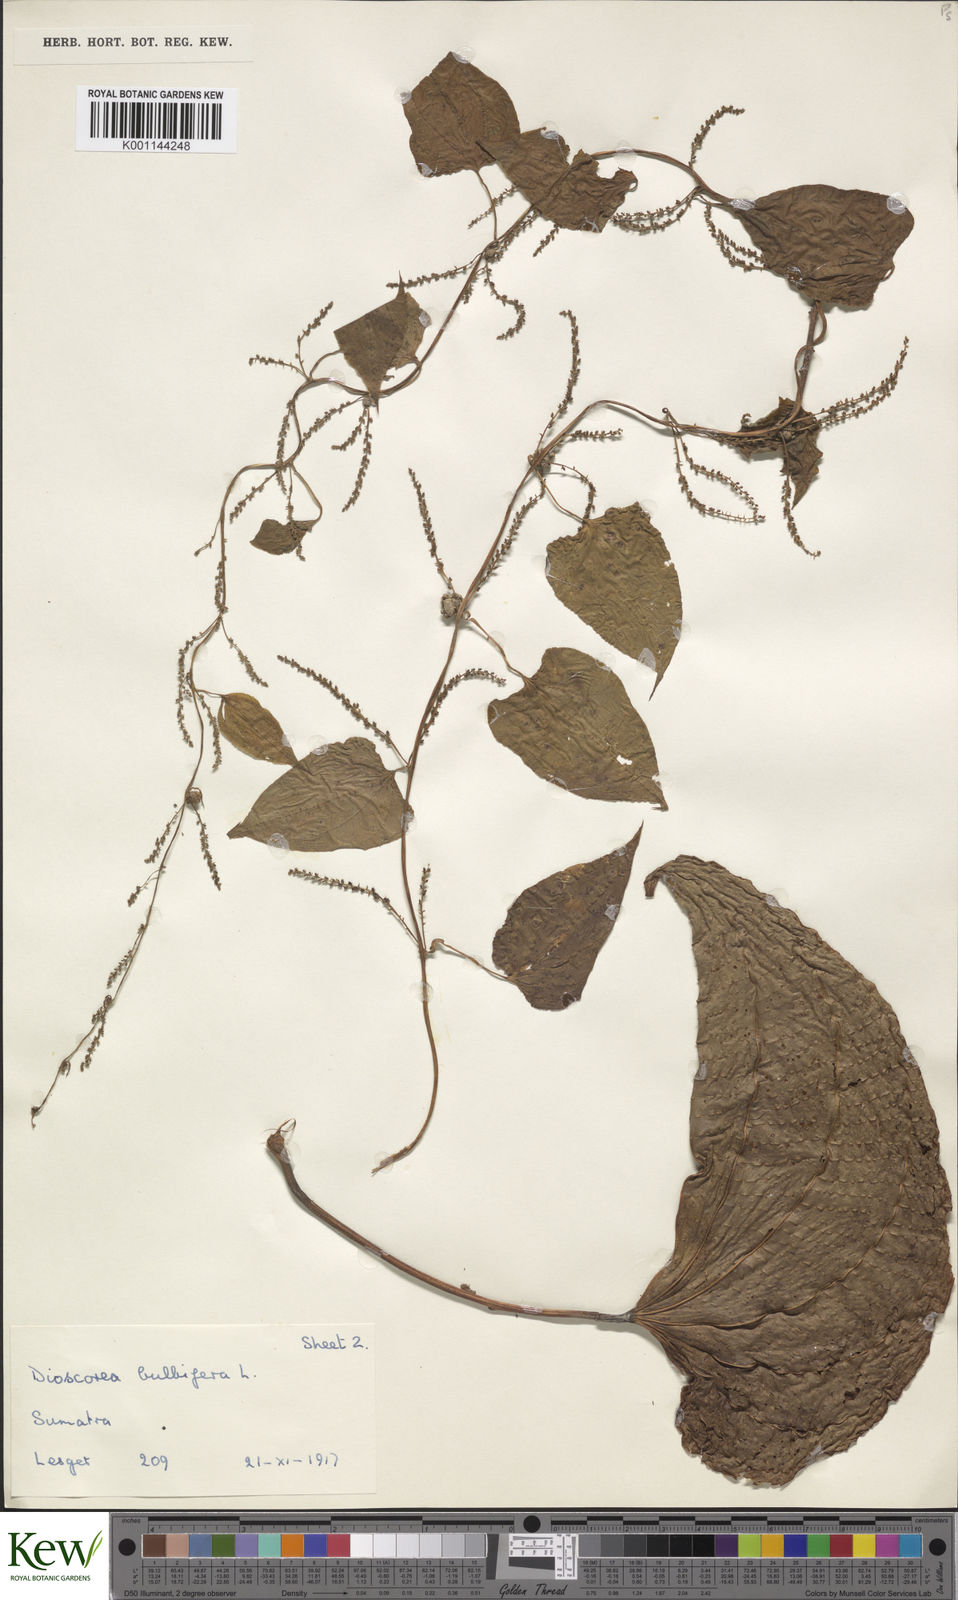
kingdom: Plantae
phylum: Tracheophyta
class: Liliopsida
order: Dioscoreales
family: Dioscoreaceae
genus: Dioscorea
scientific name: Dioscorea bulbifera
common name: Air yam
